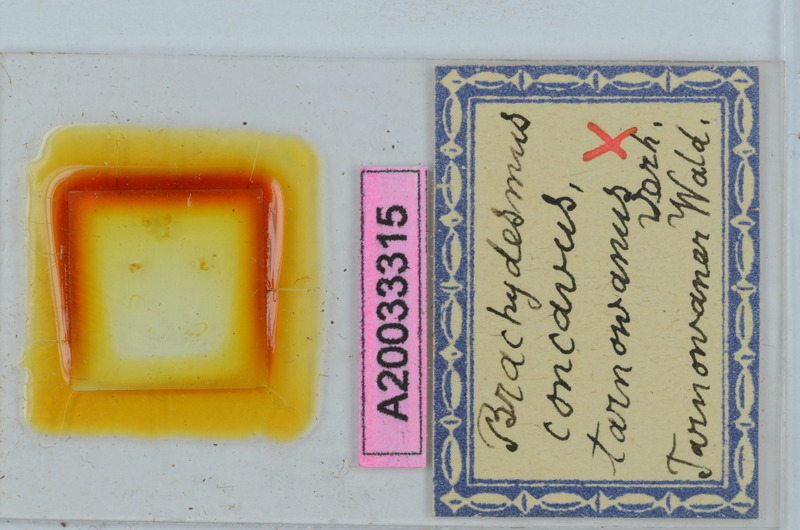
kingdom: Animalia
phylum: Arthropoda
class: Diplopoda
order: Polydesmida
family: Polydesmidae
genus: Brachydesmus
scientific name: Brachydesmus concavus
